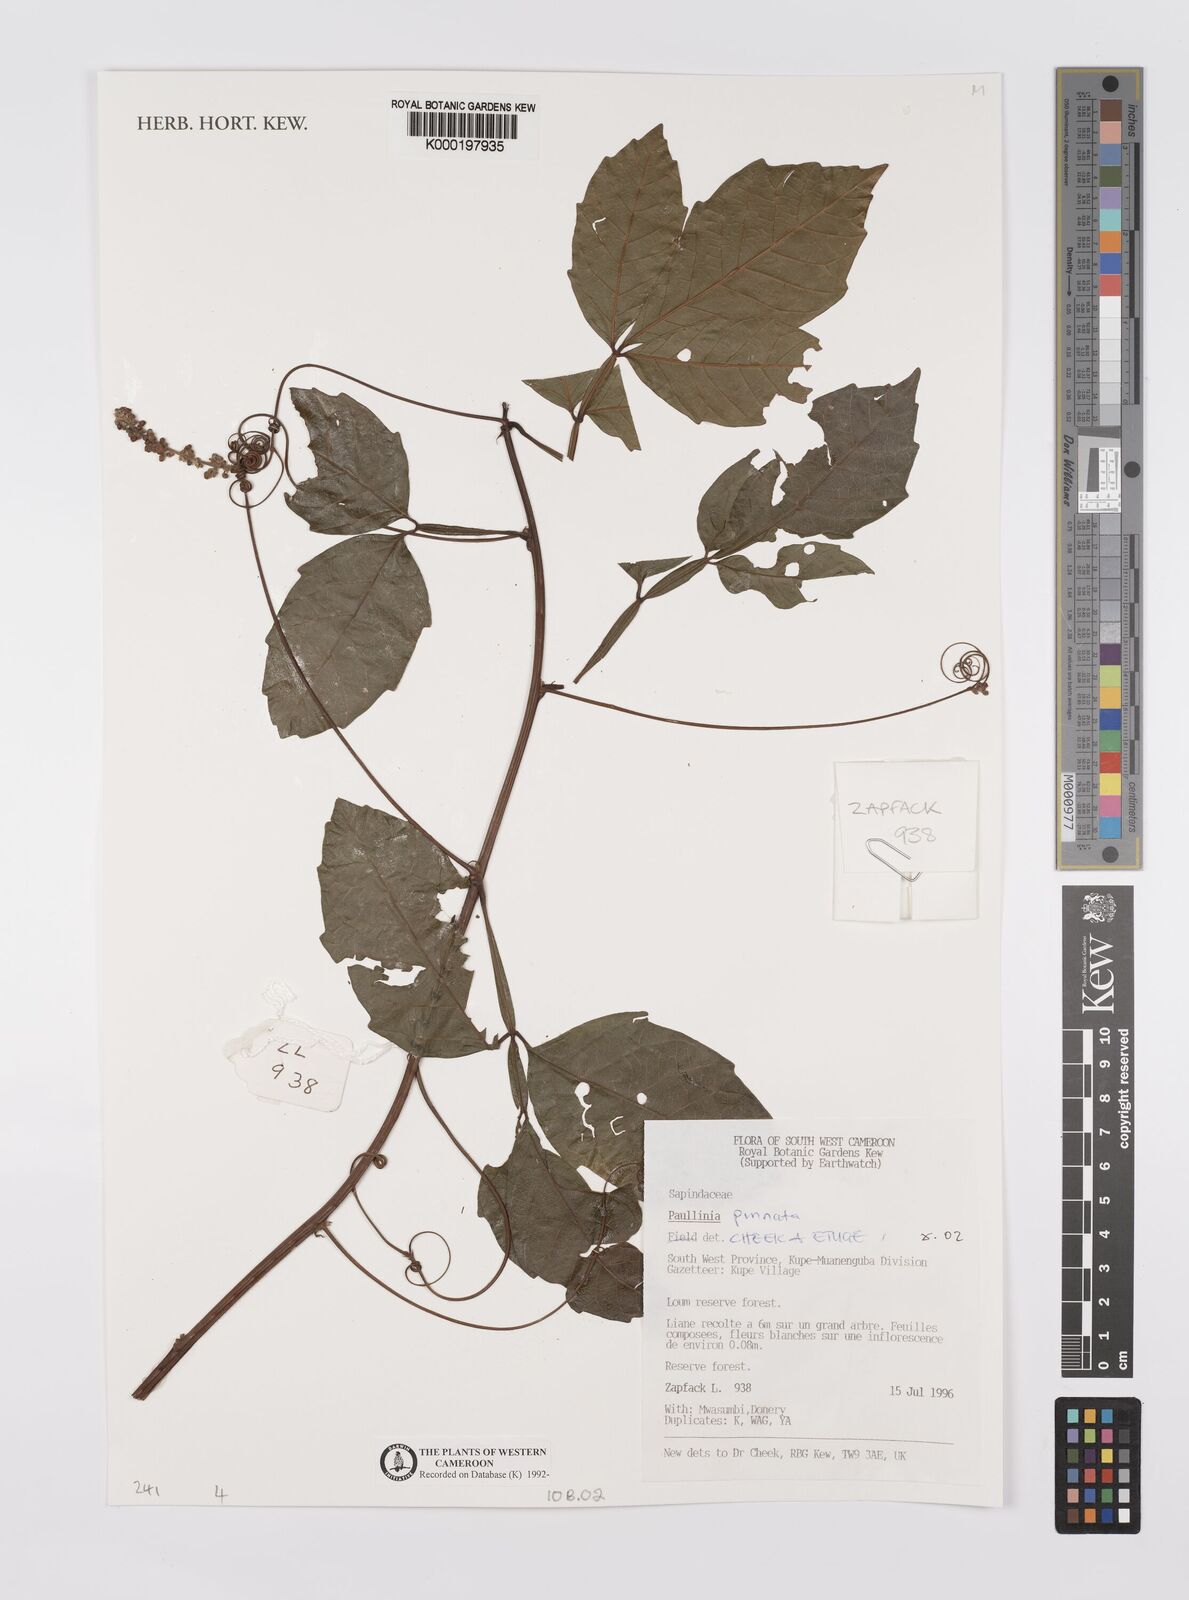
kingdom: Plantae
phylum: Tracheophyta
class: Magnoliopsida
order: Sapindales
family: Sapindaceae
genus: Paullinia
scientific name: Paullinia pinnata
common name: Barbasco
